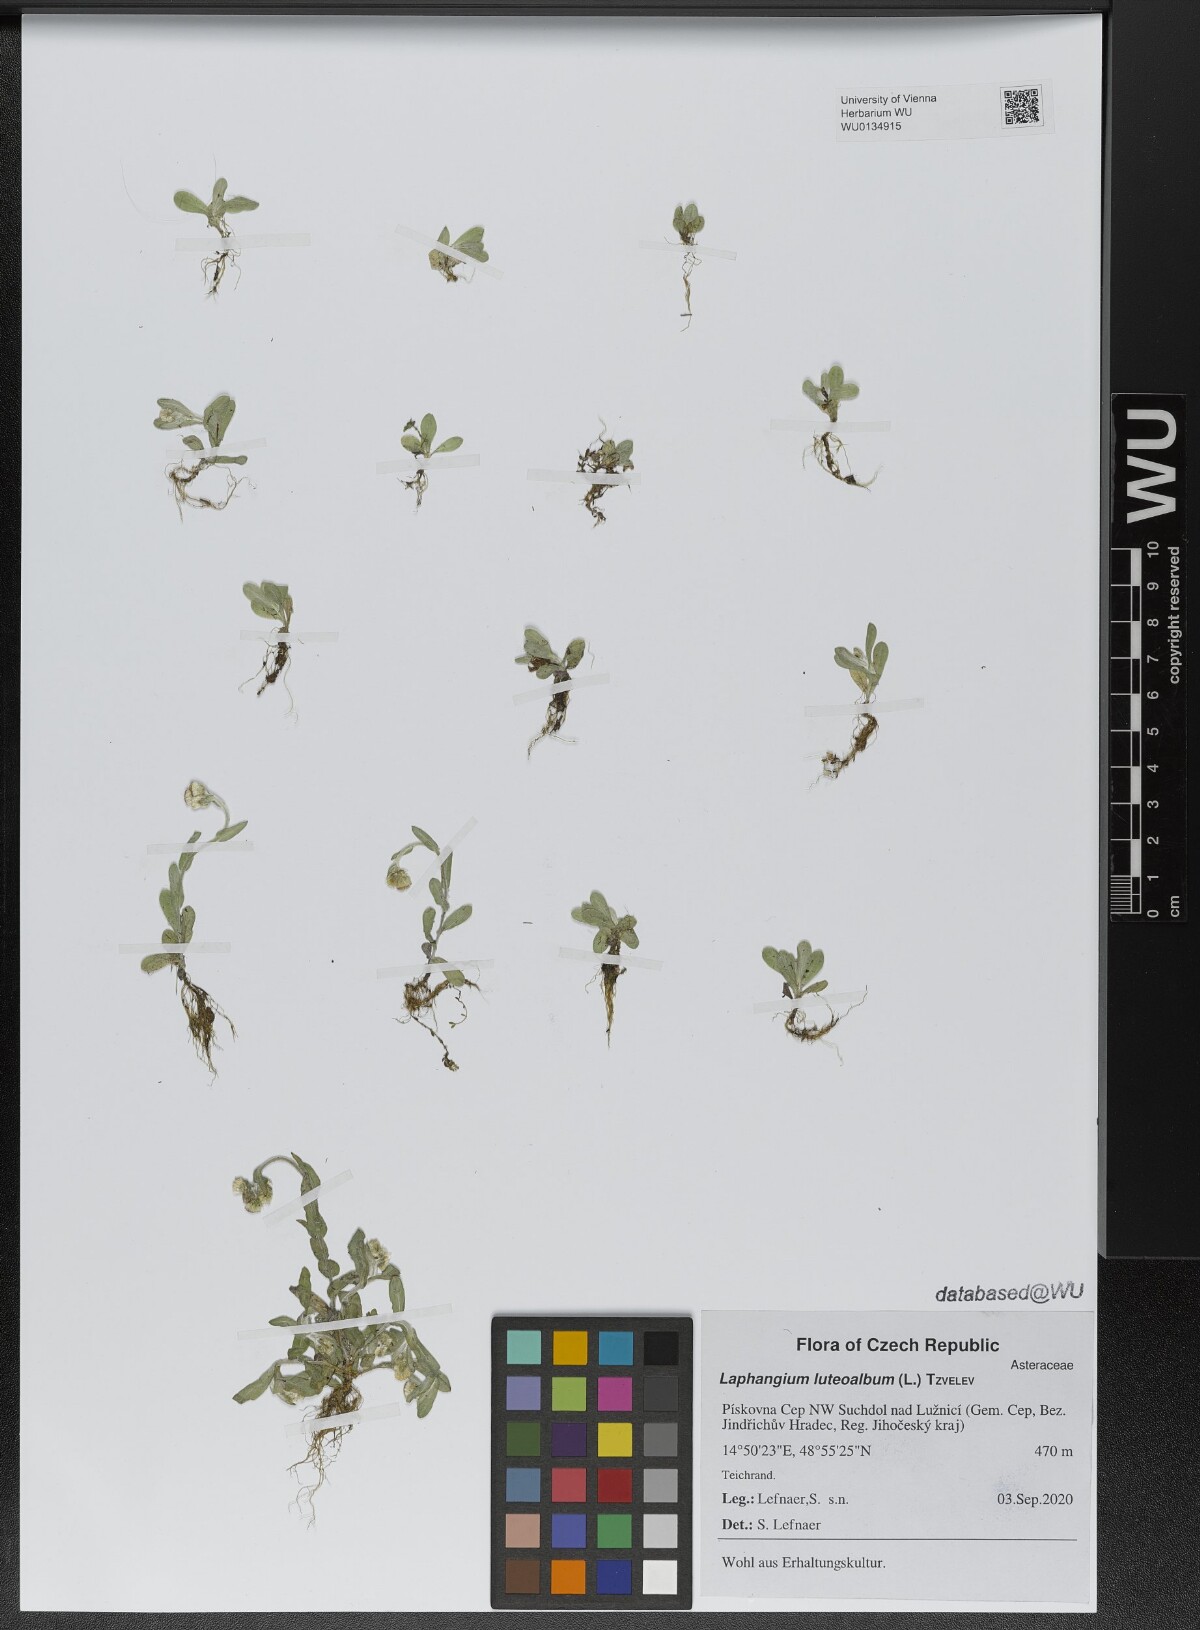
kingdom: Plantae
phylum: Tracheophyta
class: Magnoliopsida
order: Asterales
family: Asteraceae
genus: Helichrysum
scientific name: Helichrysum luteoalbum
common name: Daisy
